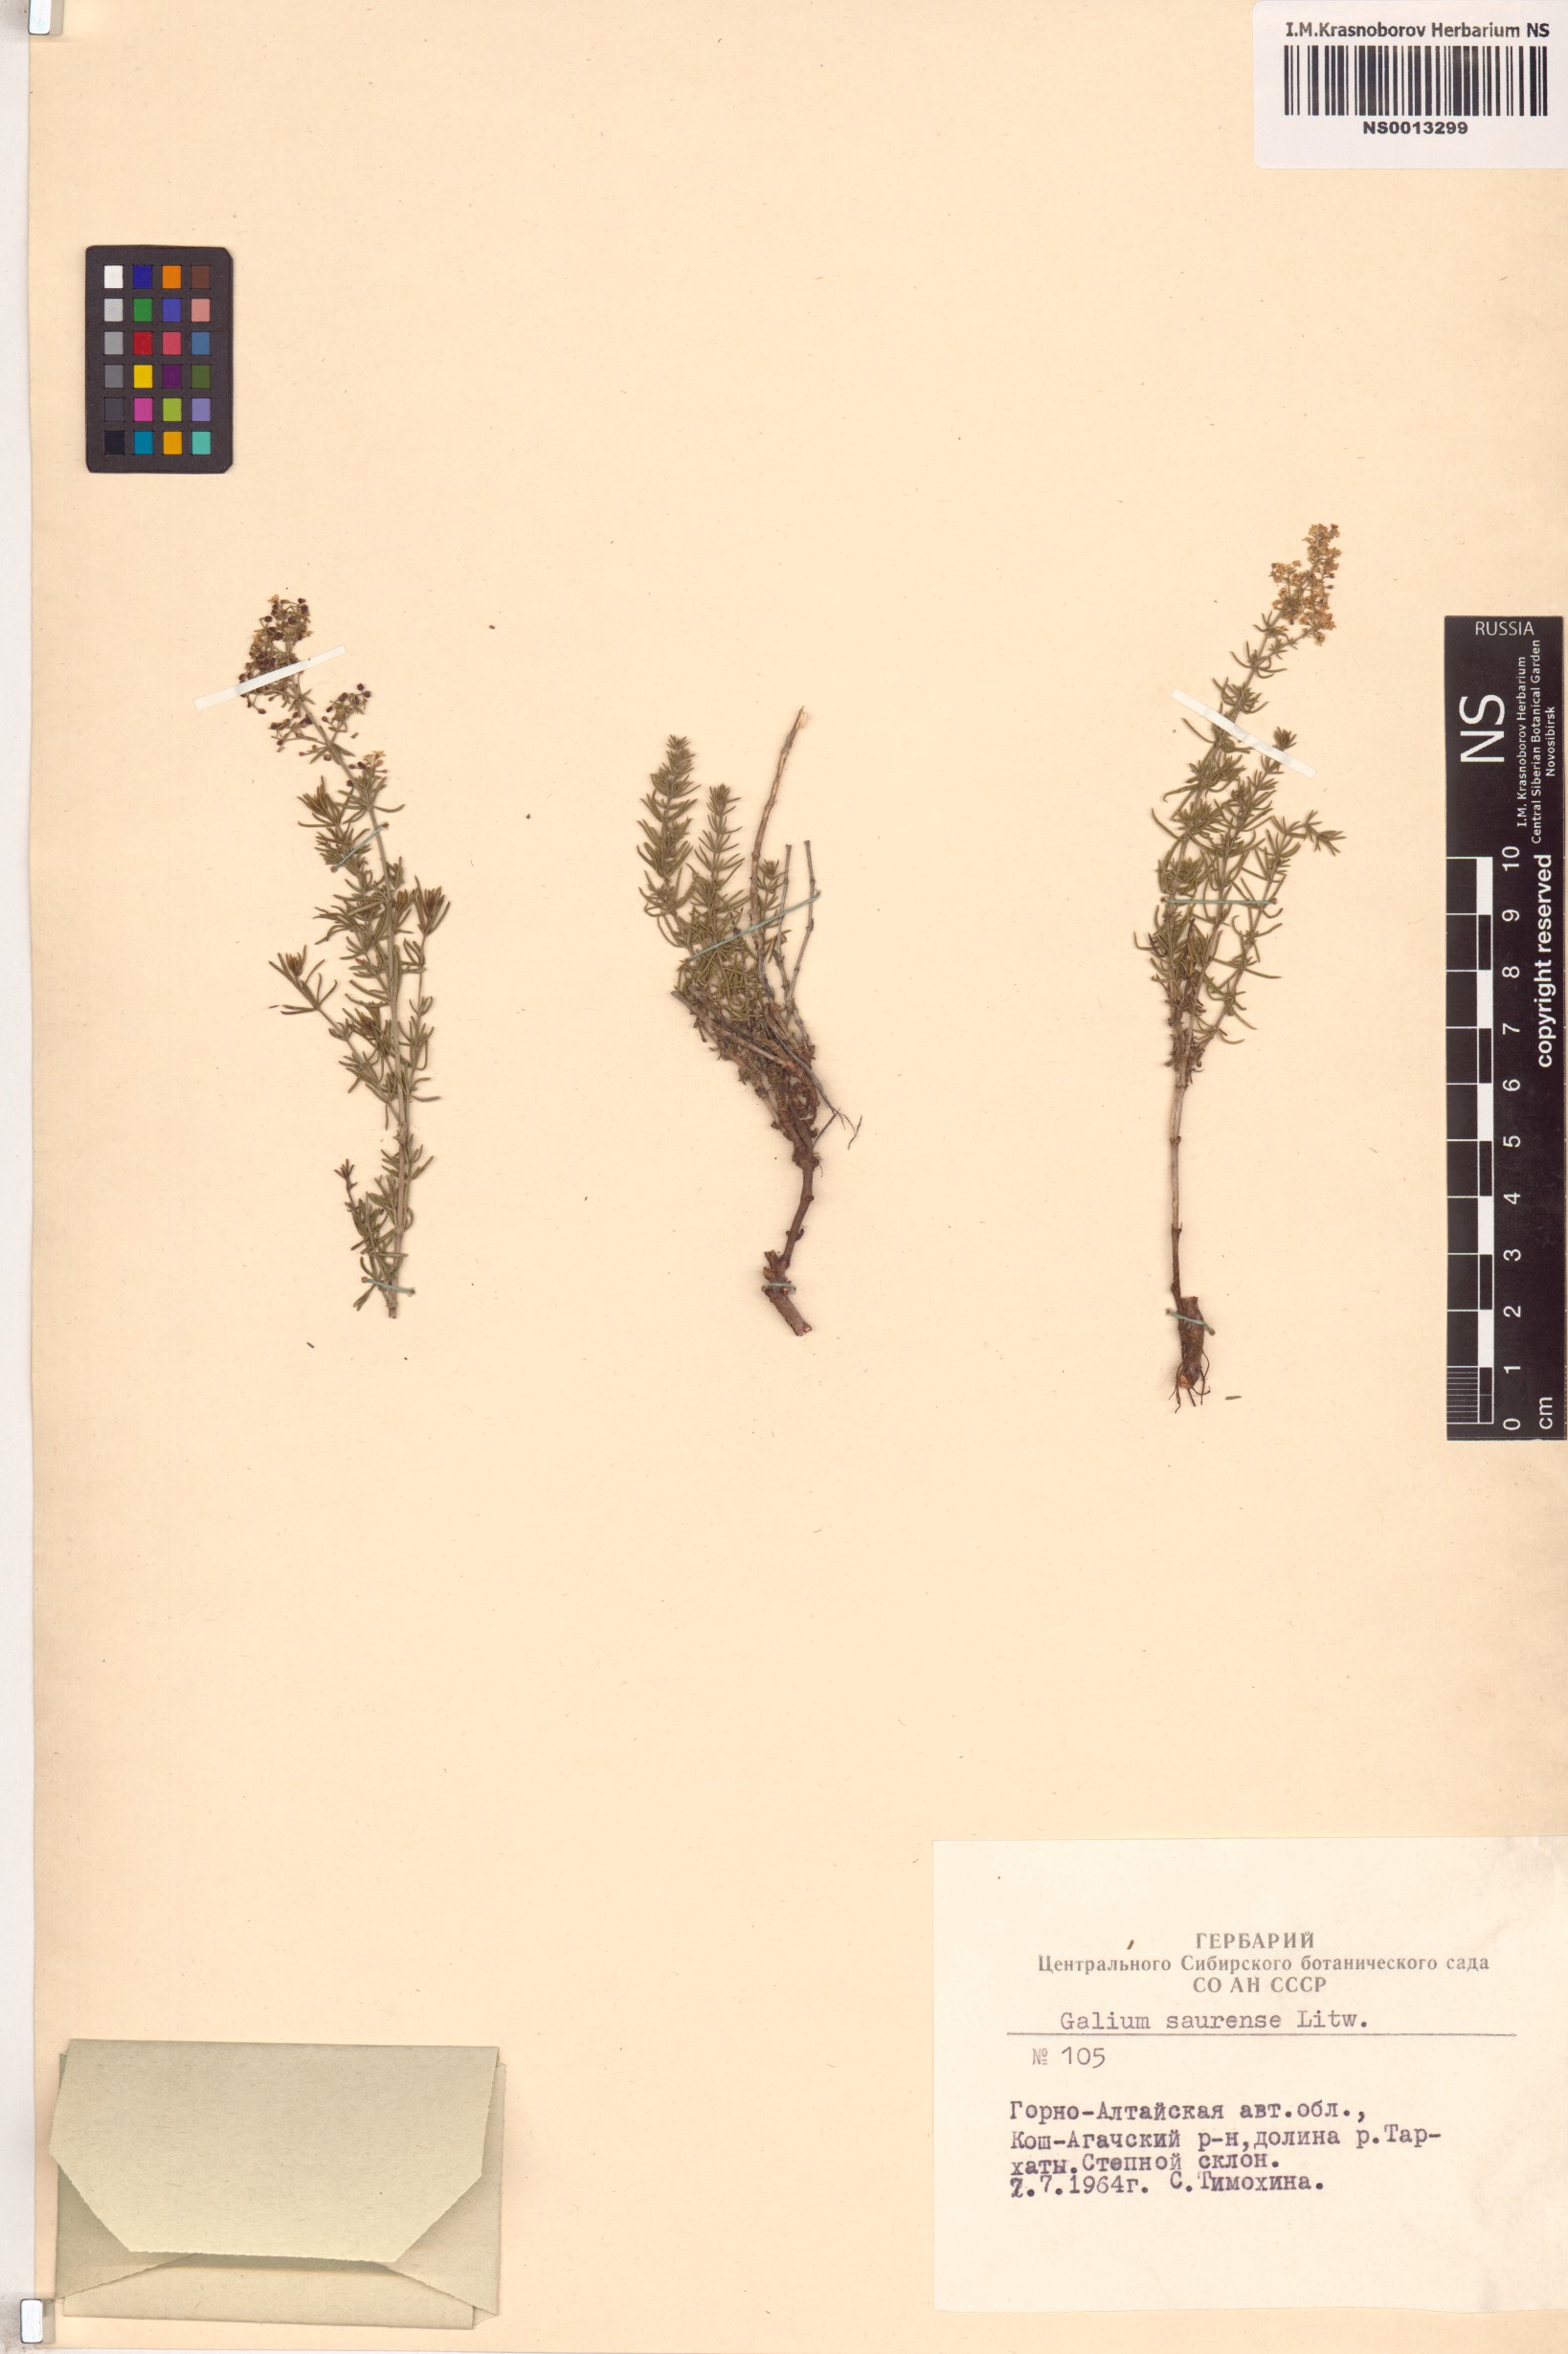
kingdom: Plantae
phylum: Tracheophyta
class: Magnoliopsida
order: Gentianales
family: Rubiaceae
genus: Galium
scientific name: Galium saurense
